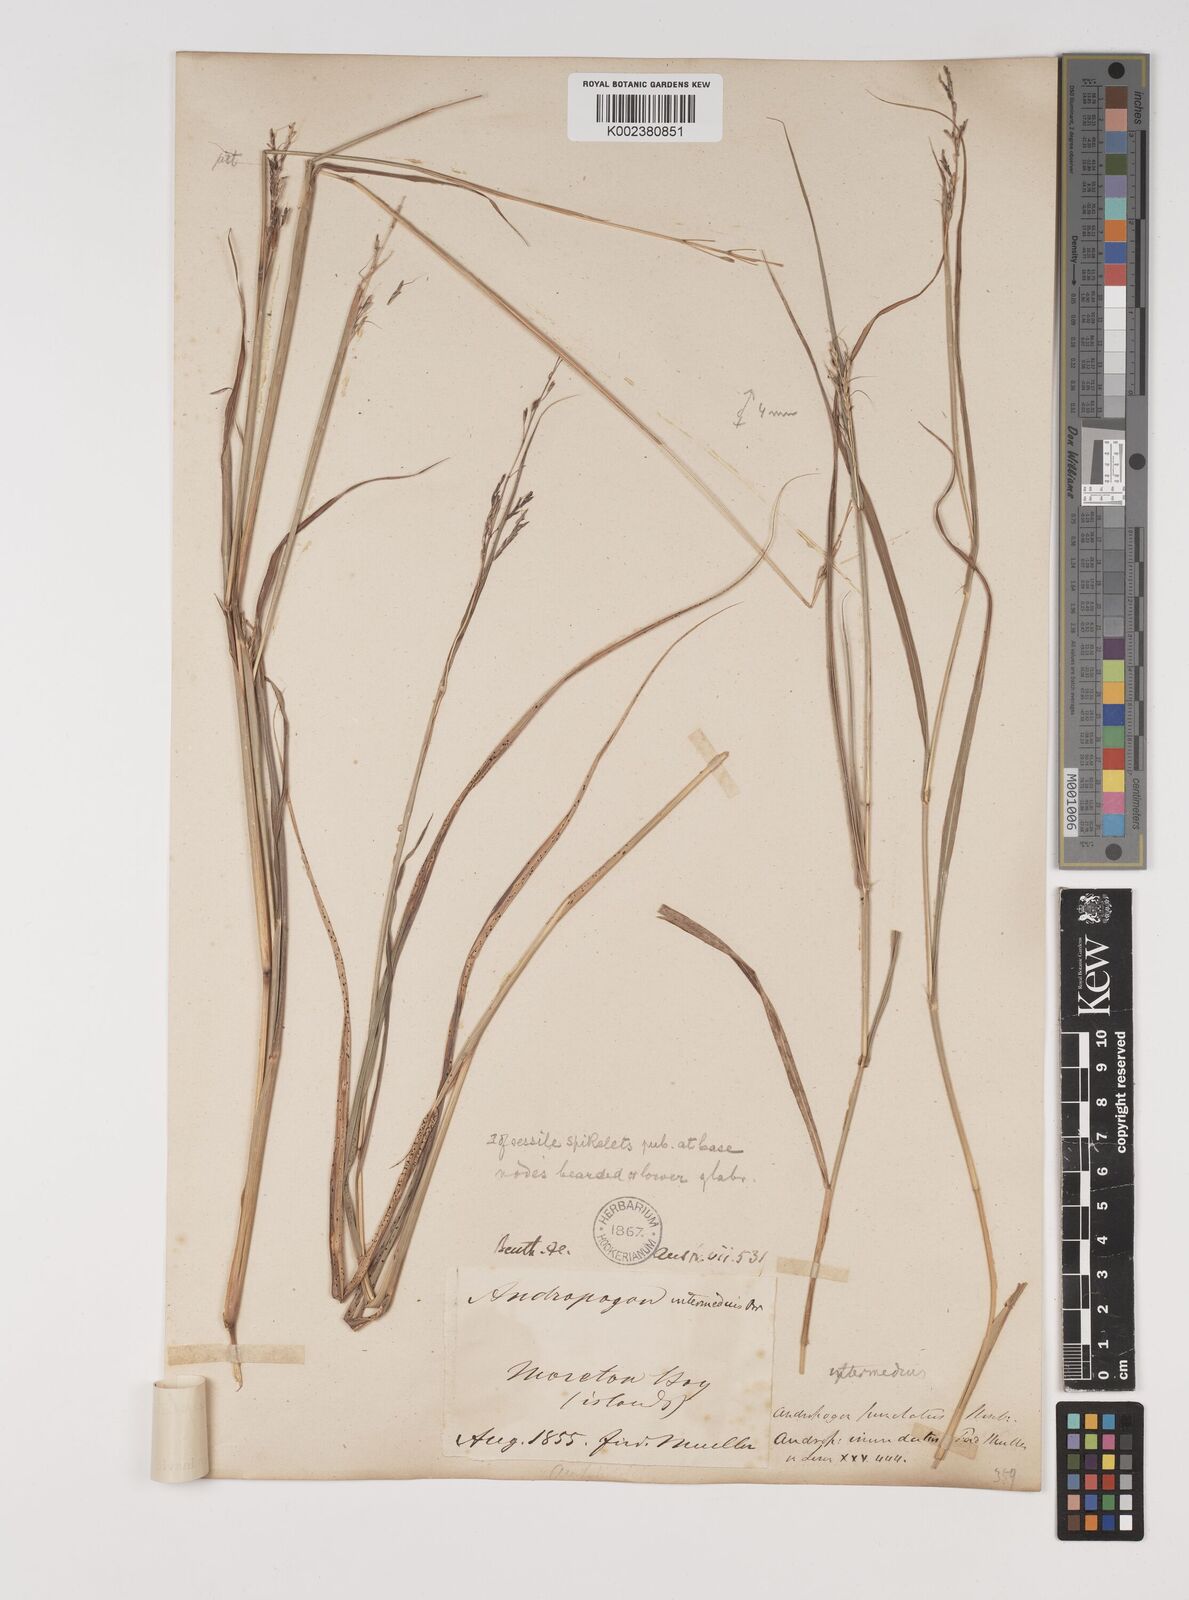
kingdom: Plantae
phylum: Tracheophyta
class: Liliopsida
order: Poales
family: Poaceae
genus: Bothriochloa
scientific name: Bothriochloa bladhii
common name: Caucasian bluestem
